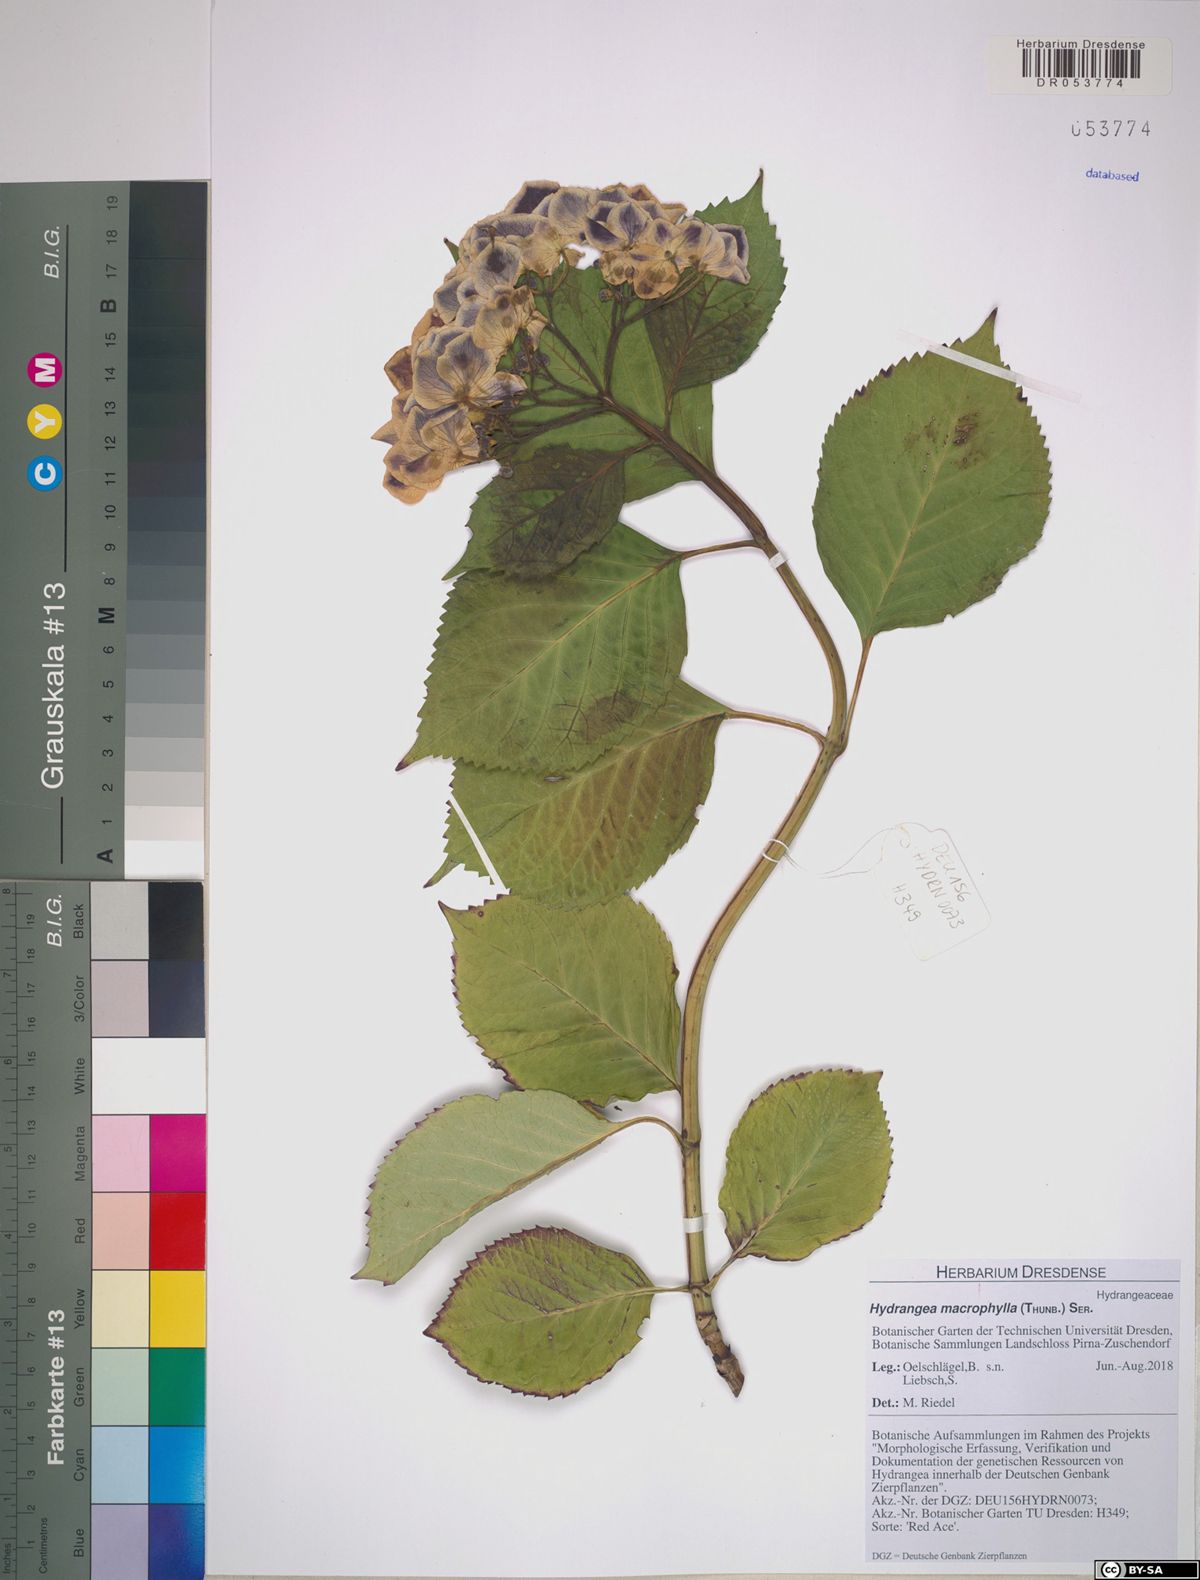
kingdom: Plantae
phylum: Tracheophyta
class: Magnoliopsida
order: Cornales
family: Hydrangeaceae
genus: Hydrangea
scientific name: Hydrangea macrophylla
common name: Hydrangea
